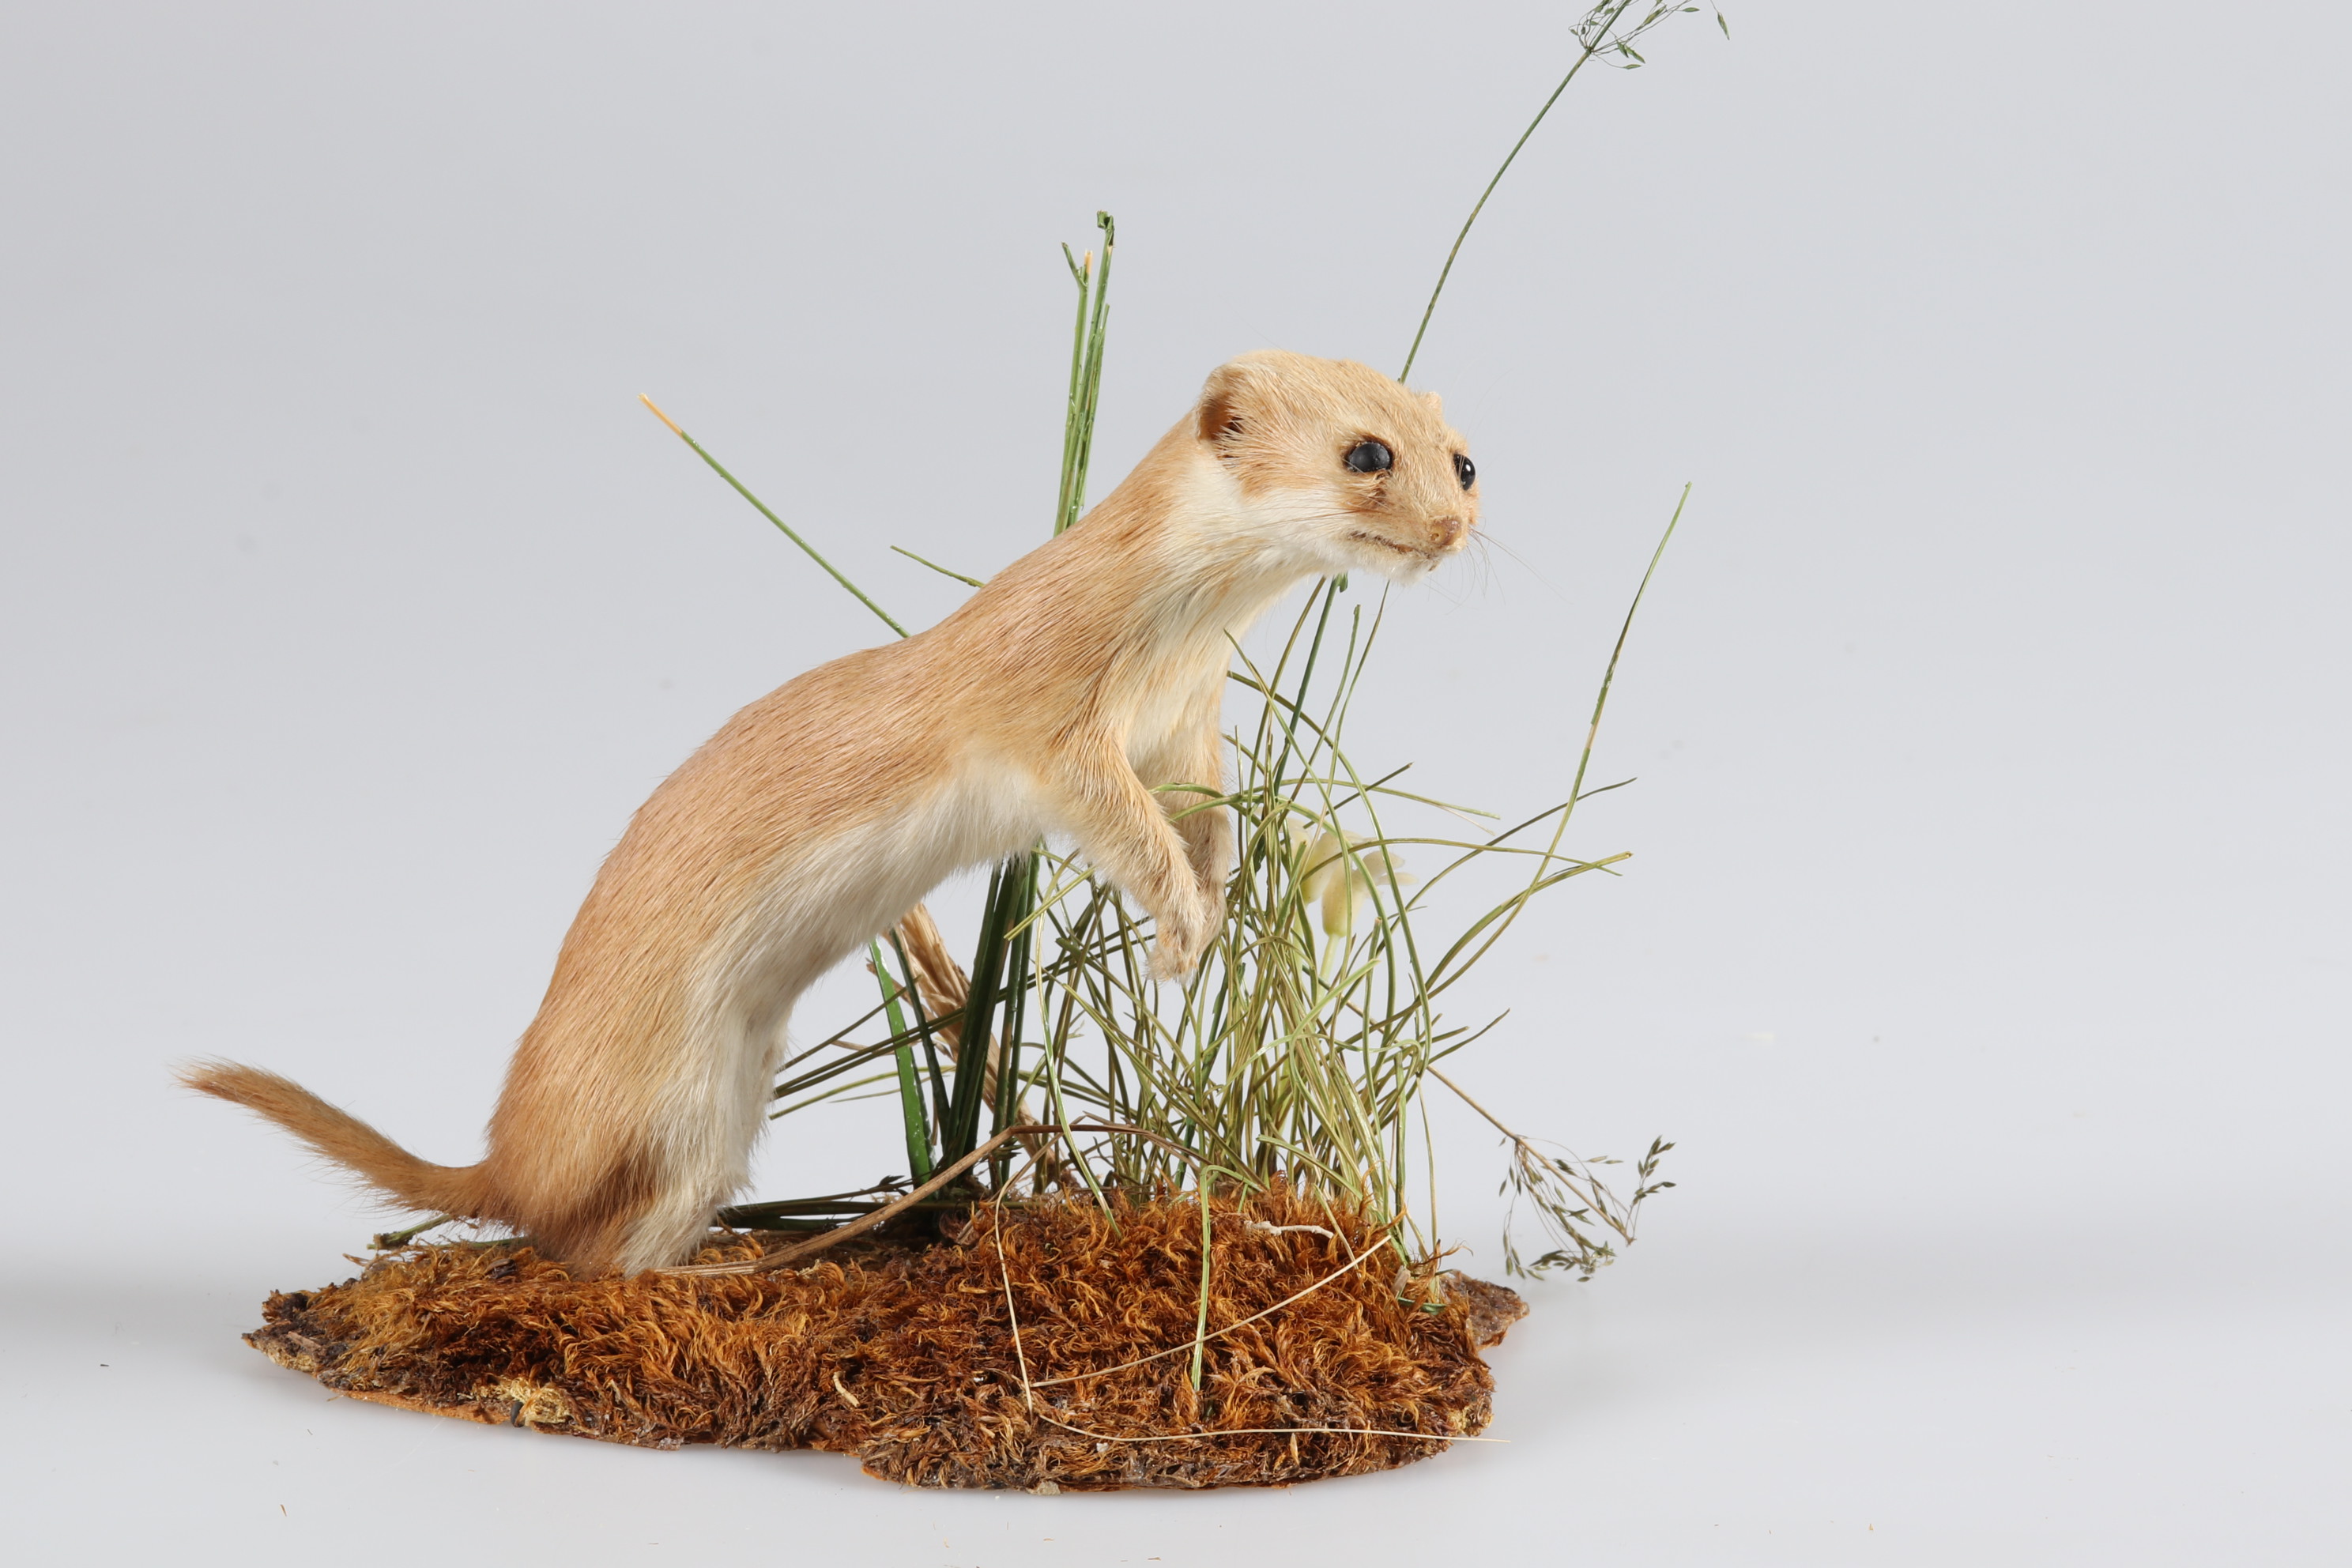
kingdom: Animalia
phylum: Chordata
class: Mammalia
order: Carnivora
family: Mustelidae
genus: Mustela
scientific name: Mustela nivalis
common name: Least weasel
